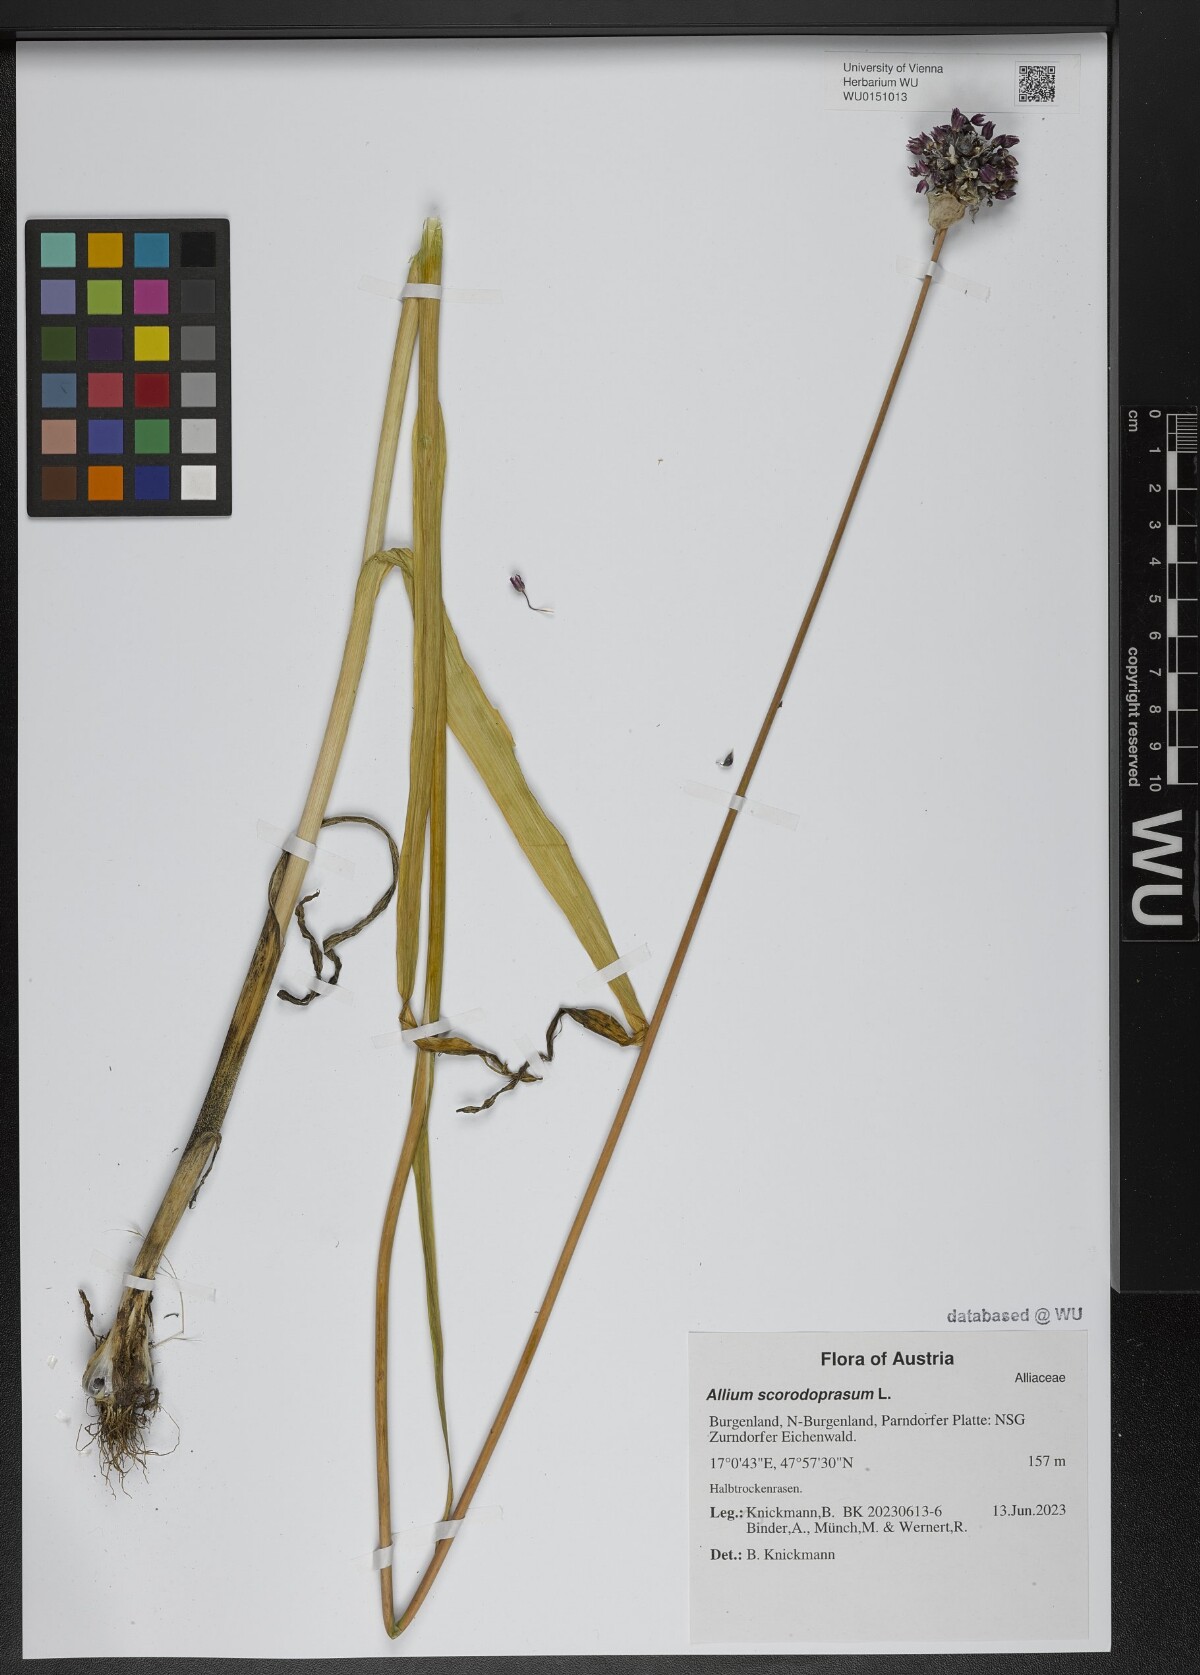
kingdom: Plantae
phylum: Tracheophyta
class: Liliopsida
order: Asparagales
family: Amaryllidaceae
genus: Allium
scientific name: Allium scorodoprasum
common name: Sand leek
